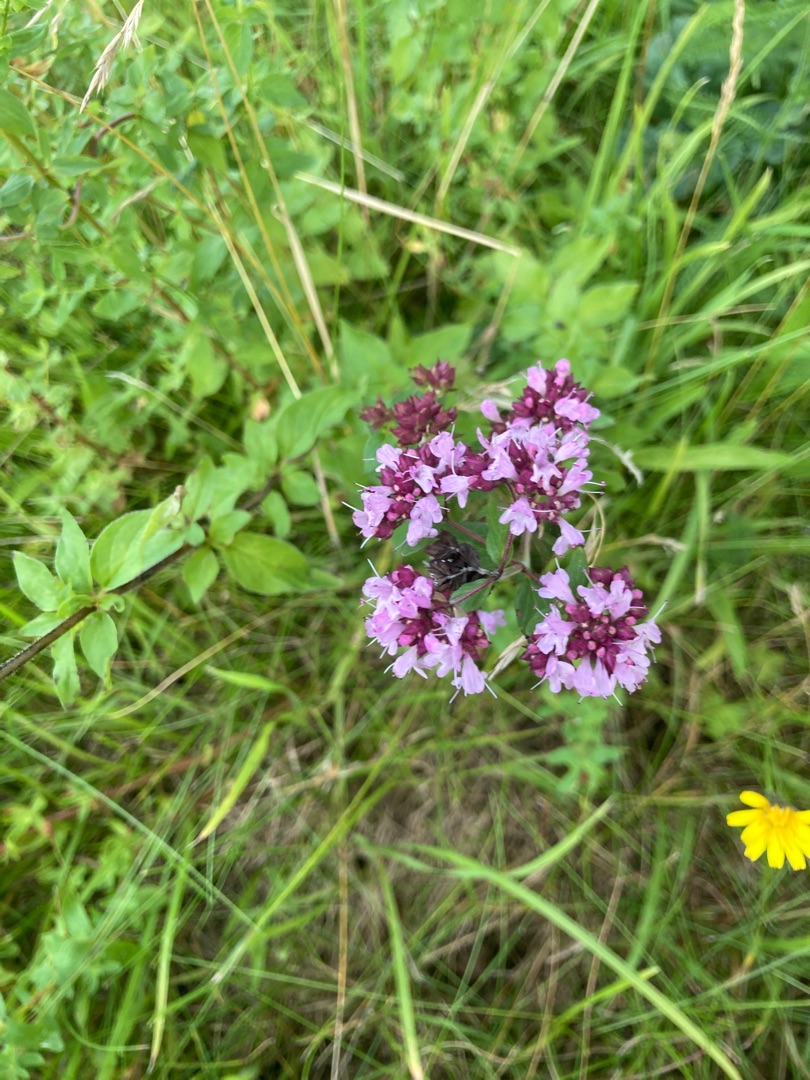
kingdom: Plantae
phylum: Tracheophyta
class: Magnoliopsida
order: Lamiales
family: Lamiaceae
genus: Origanum
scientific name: Origanum vulgare
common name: Merian
